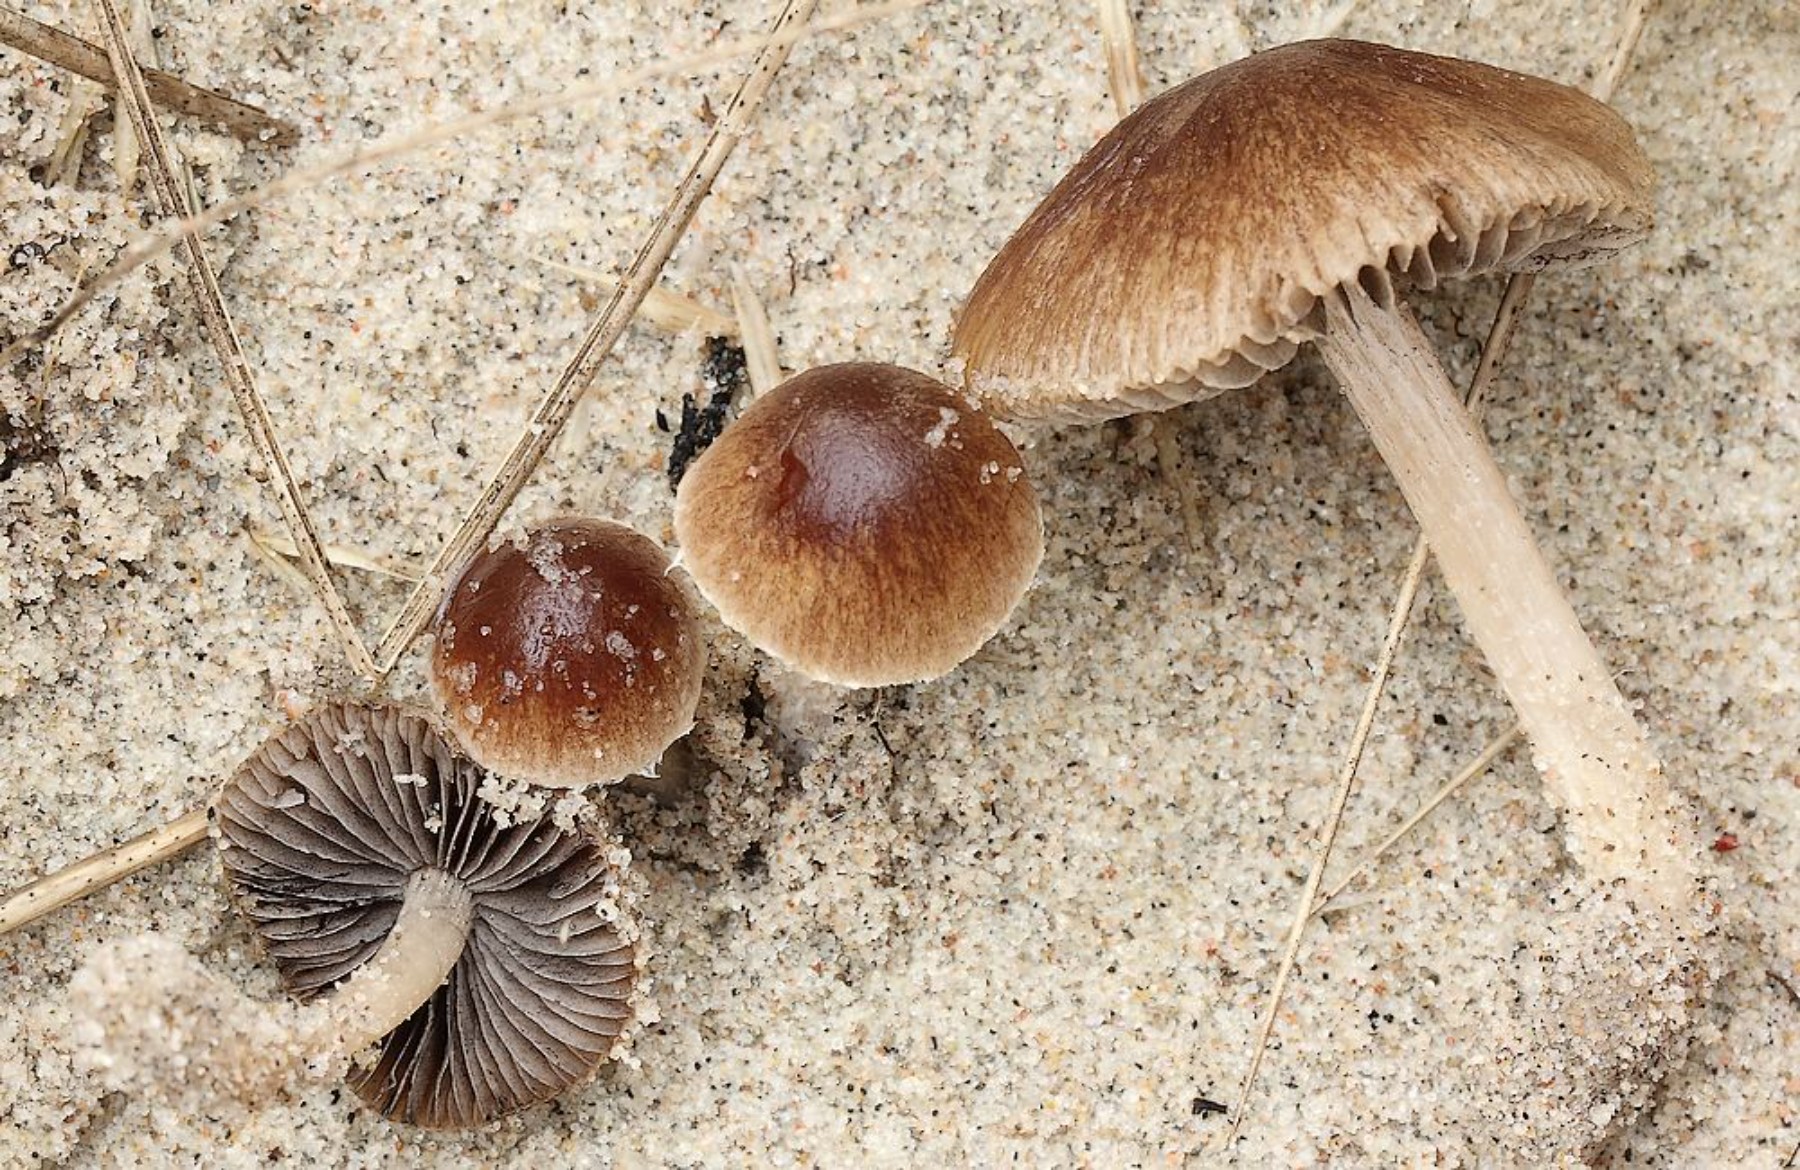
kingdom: Fungi
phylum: Basidiomycota
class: Agaricomycetes
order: Agaricales
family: Psathyrellaceae
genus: Psathyrella
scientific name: Psathyrella ammophila
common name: klit-mørkhat
